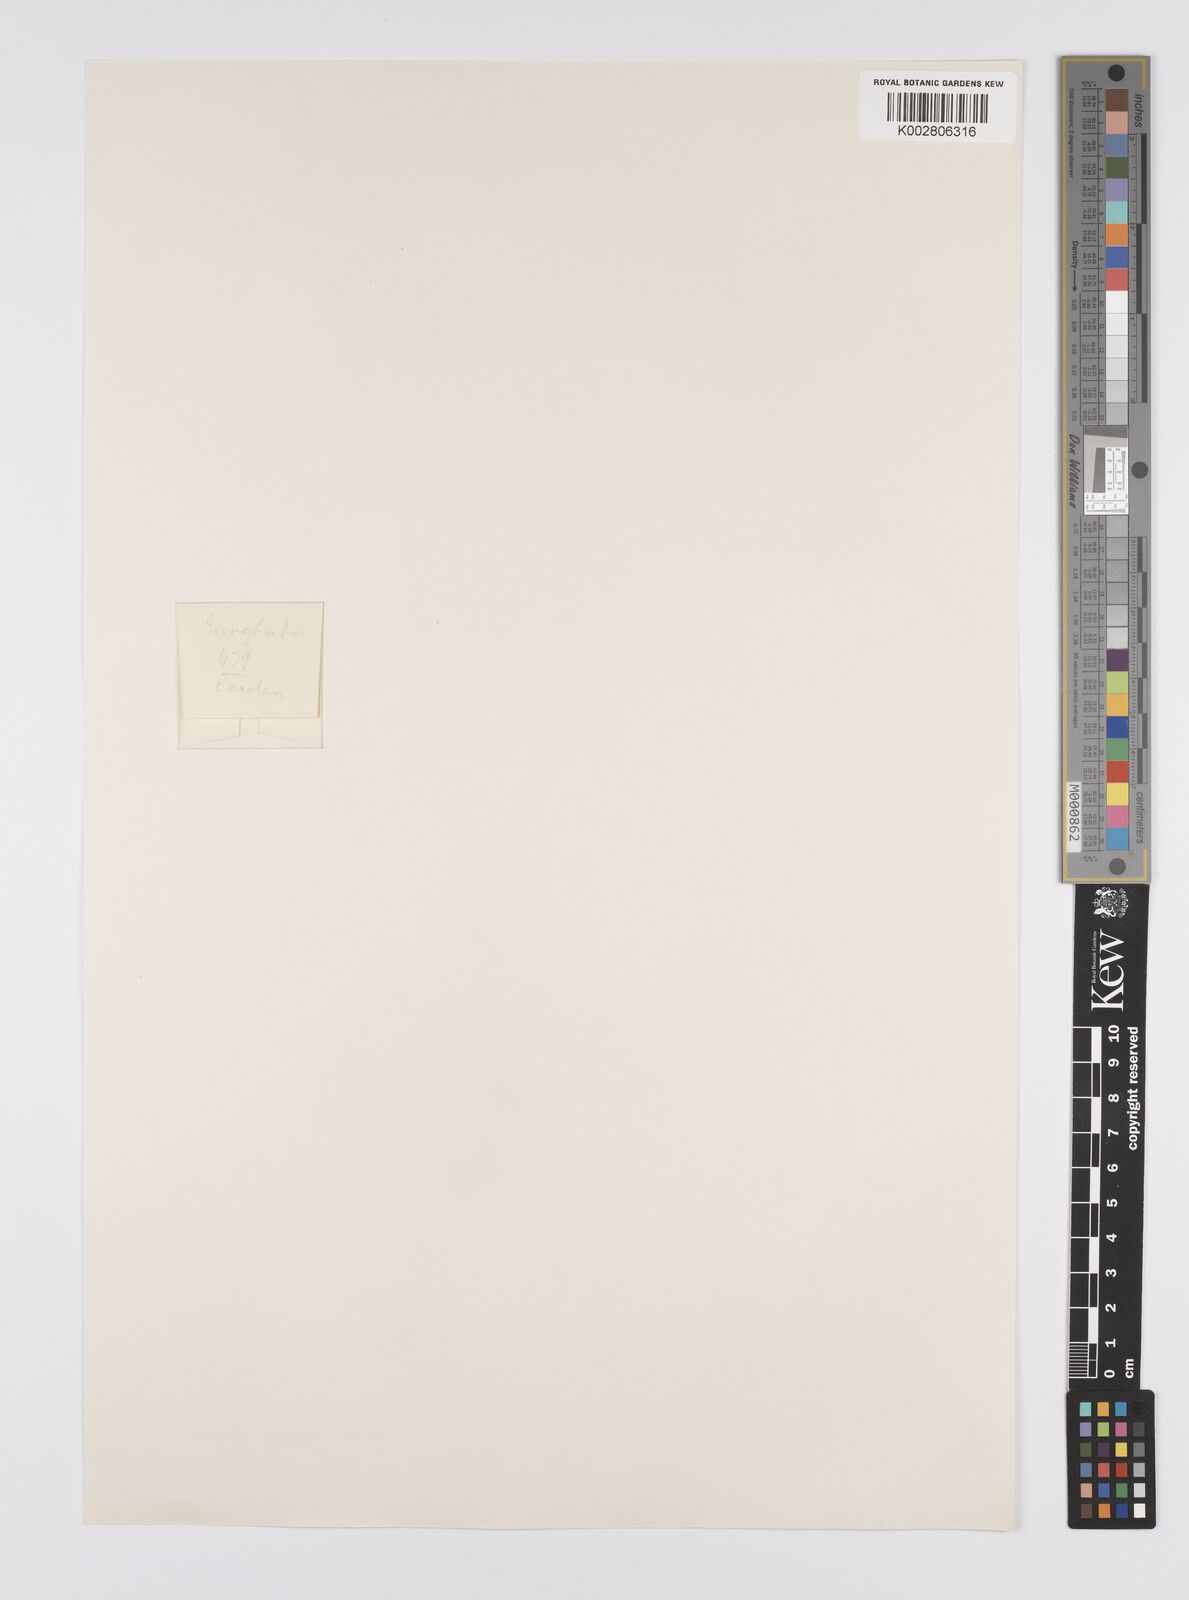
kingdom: Plantae
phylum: Tracheophyta
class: Liliopsida
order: Poales
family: Cyperaceae
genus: Carex
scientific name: Carex verticillata
